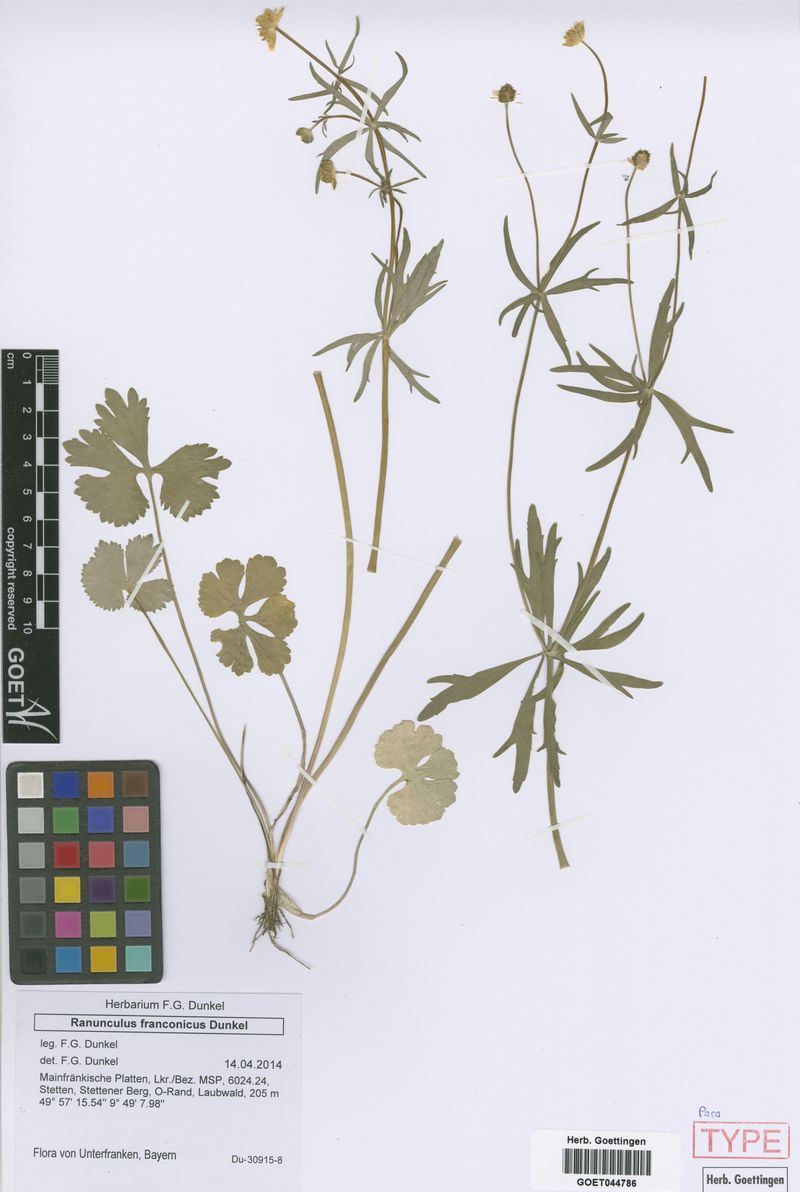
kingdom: Plantae
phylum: Tracheophyta
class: Magnoliopsida
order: Ranunculales
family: Ranunculaceae
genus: Ranunculus
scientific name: Ranunculus franconicus
